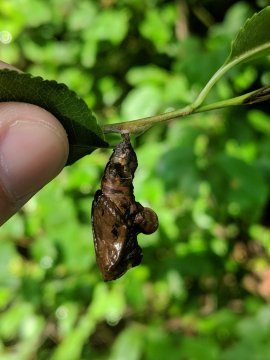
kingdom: Animalia
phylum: Arthropoda
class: Insecta
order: Lepidoptera
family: Nymphalidae
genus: Limenitis
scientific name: Limenitis
